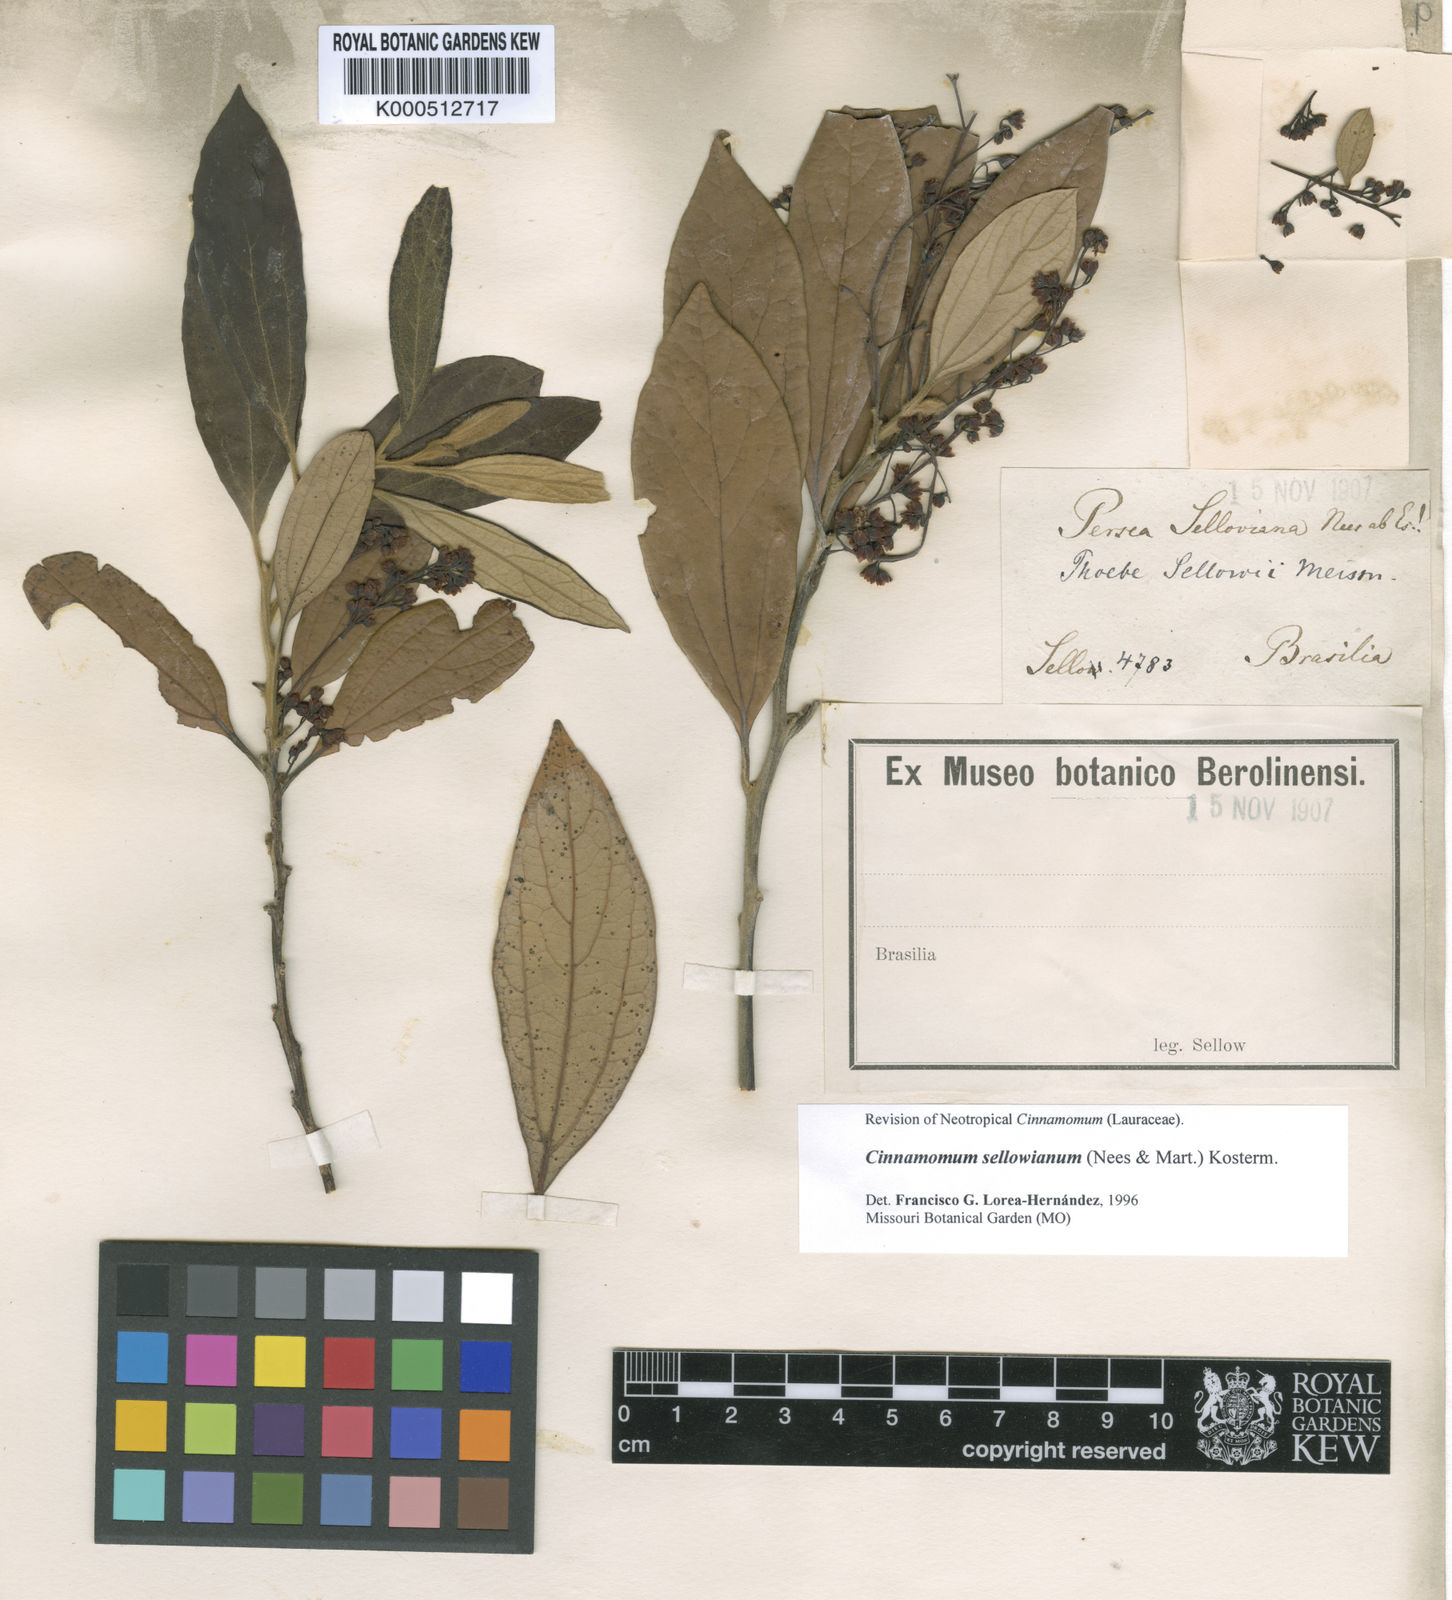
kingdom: Plantae
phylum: Tracheophyta
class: Magnoliopsida
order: Laurales
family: Lauraceae
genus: Aiouea
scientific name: Aiouea sellowiana
